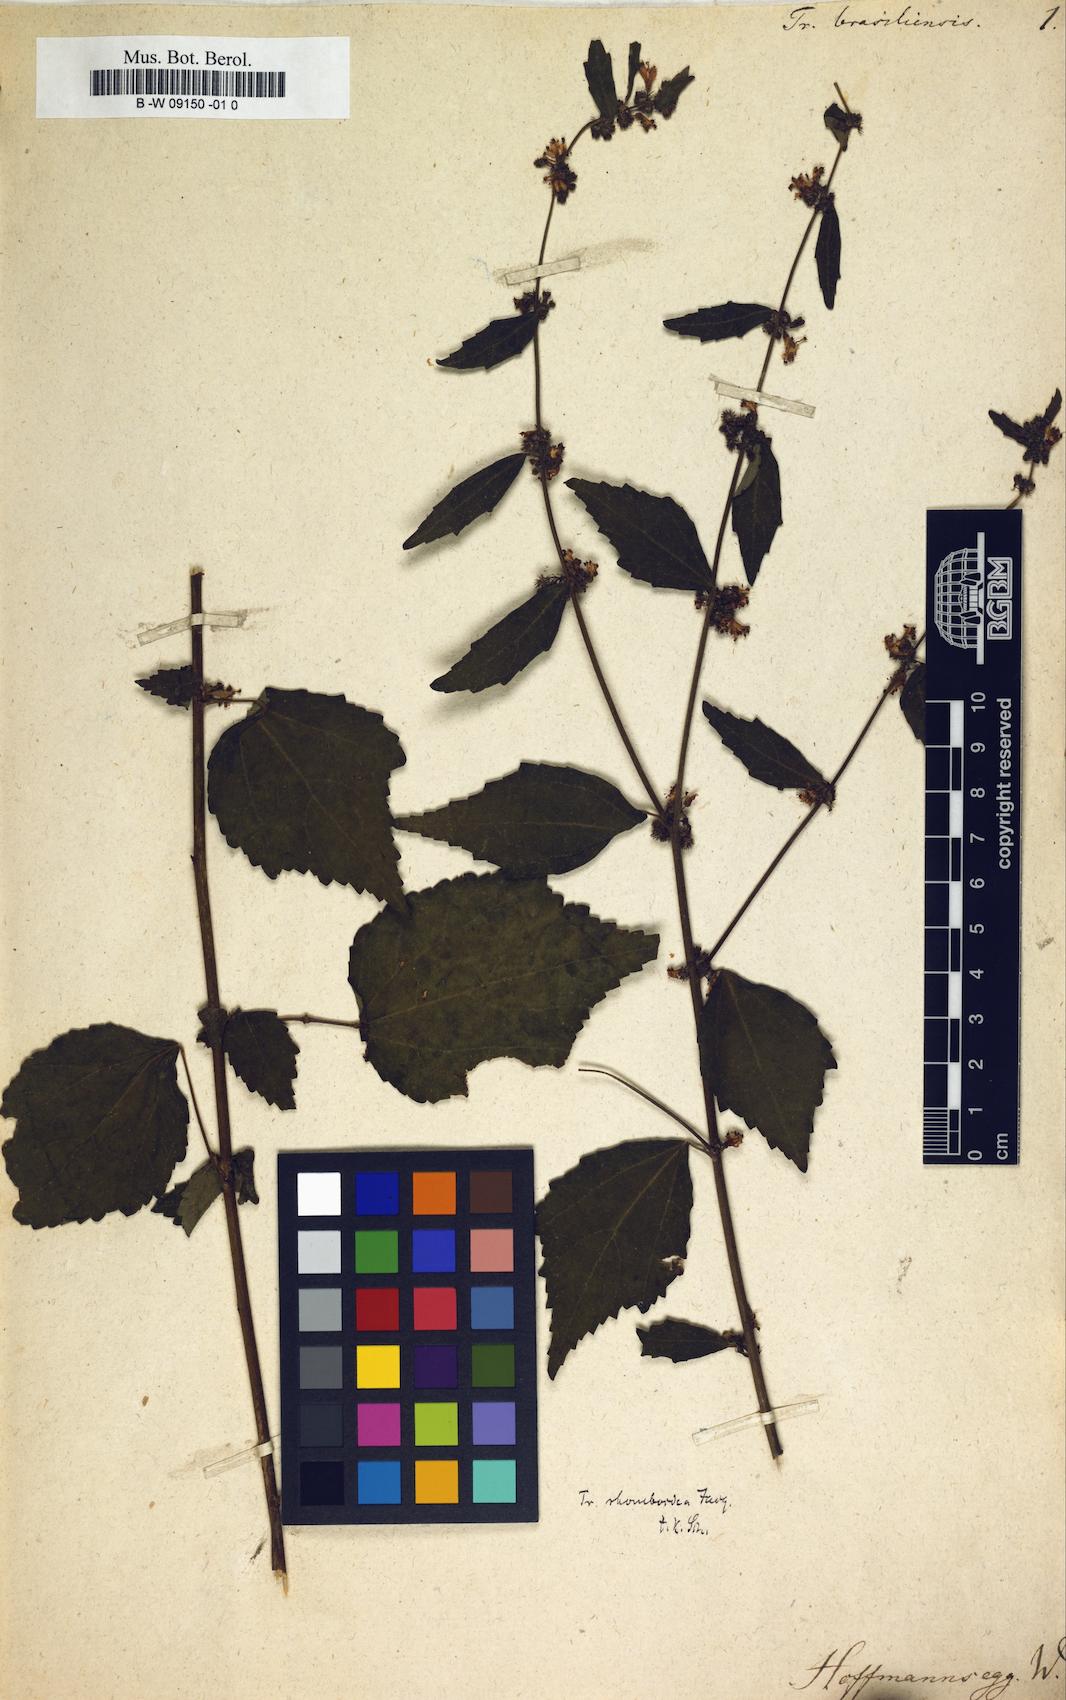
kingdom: Plantae
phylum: Tracheophyta
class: Magnoliopsida
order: Malvales
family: Malvaceae
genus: Triumfetta
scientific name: Triumfetta
